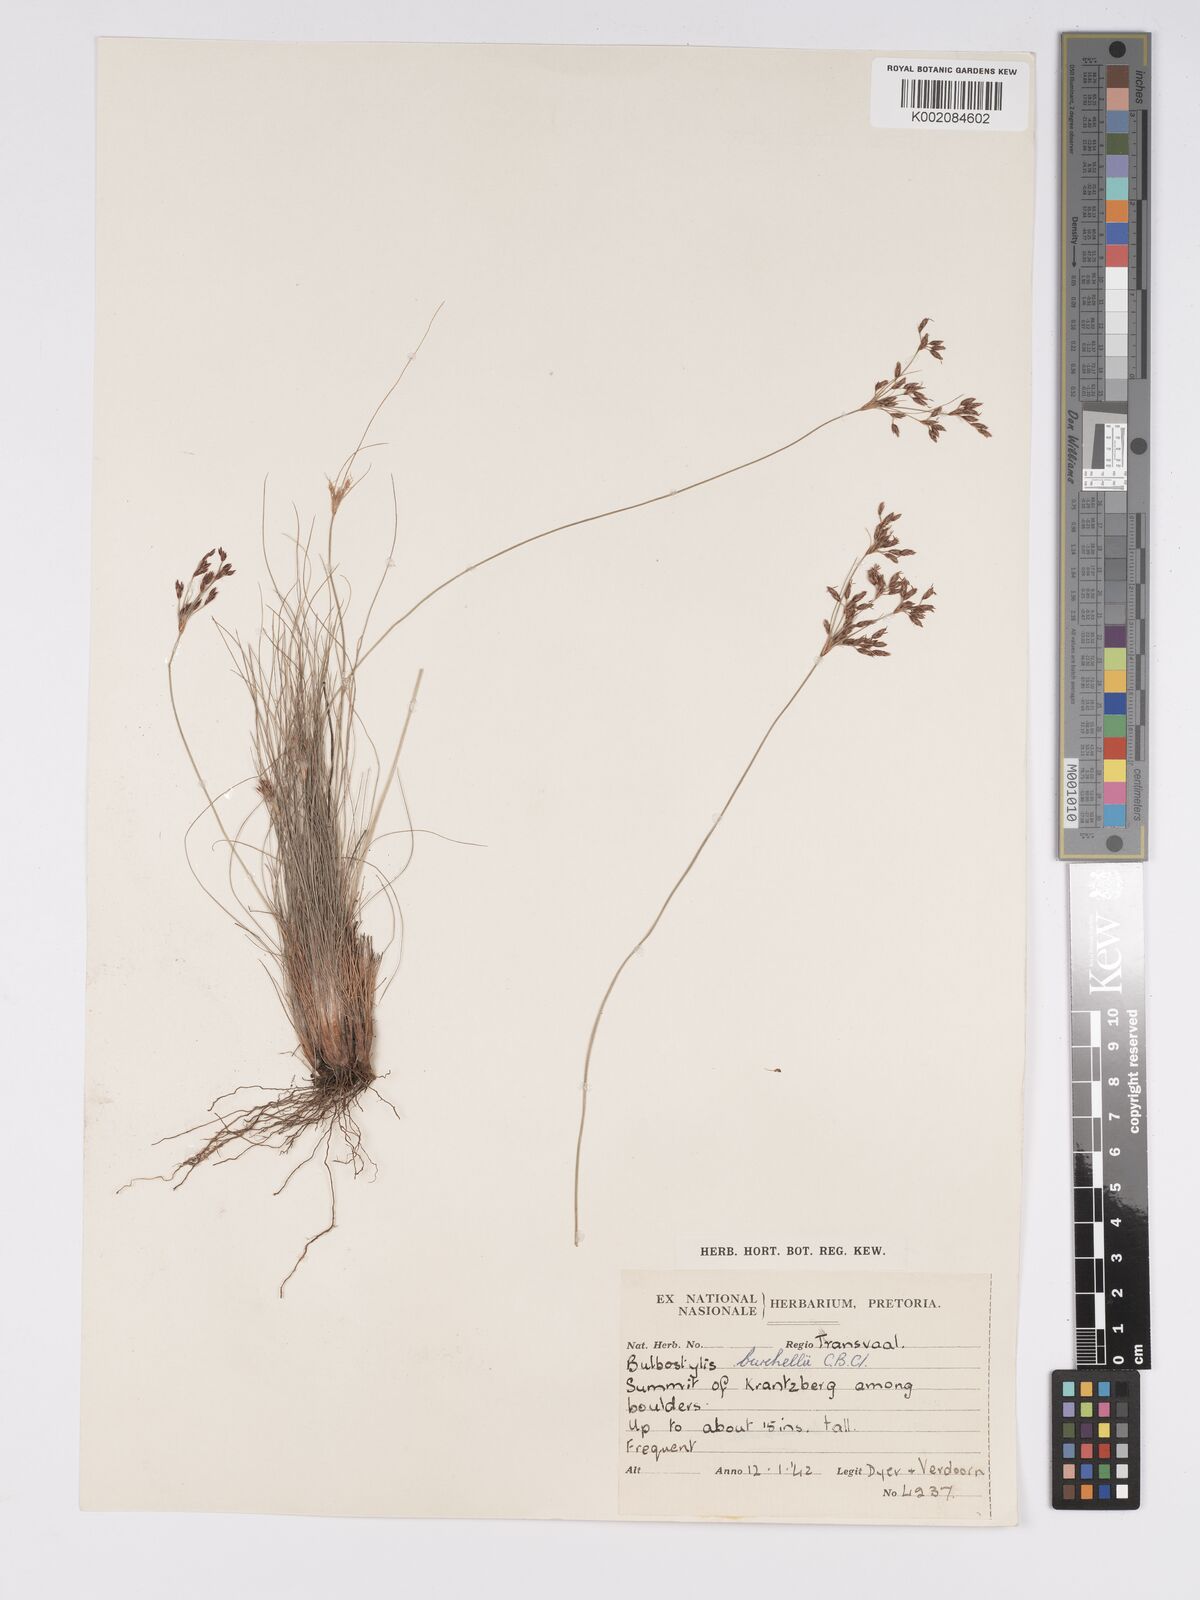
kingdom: Plantae
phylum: Tracheophyta
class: Liliopsida
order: Poales
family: Cyperaceae
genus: Bulbostylis
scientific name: Bulbostylis burchellii
